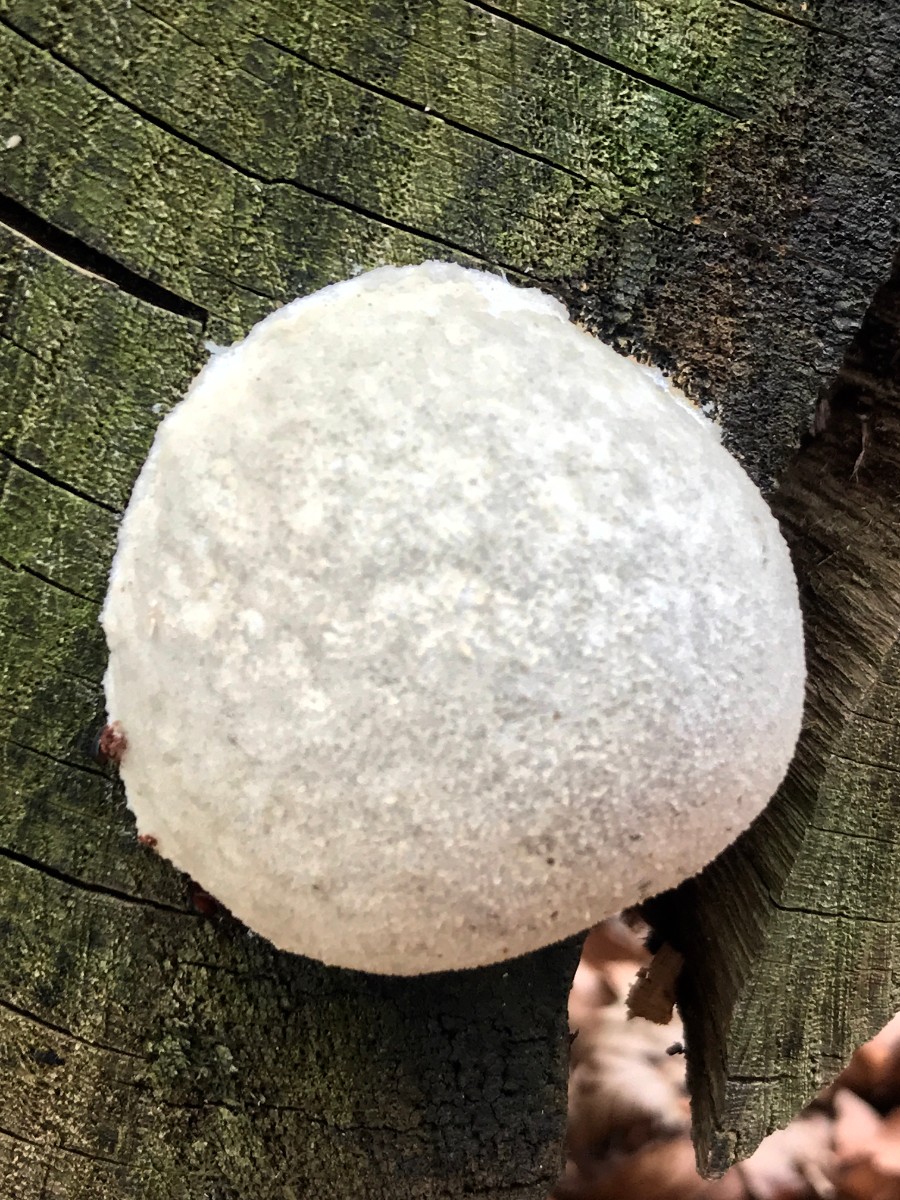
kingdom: Protozoa
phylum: Mycetozoa
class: Myxomycetes
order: Cribrariales
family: Tubiferaceae
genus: Reticularia
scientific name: Reticularia lycoperdon
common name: skinnende støvpude
